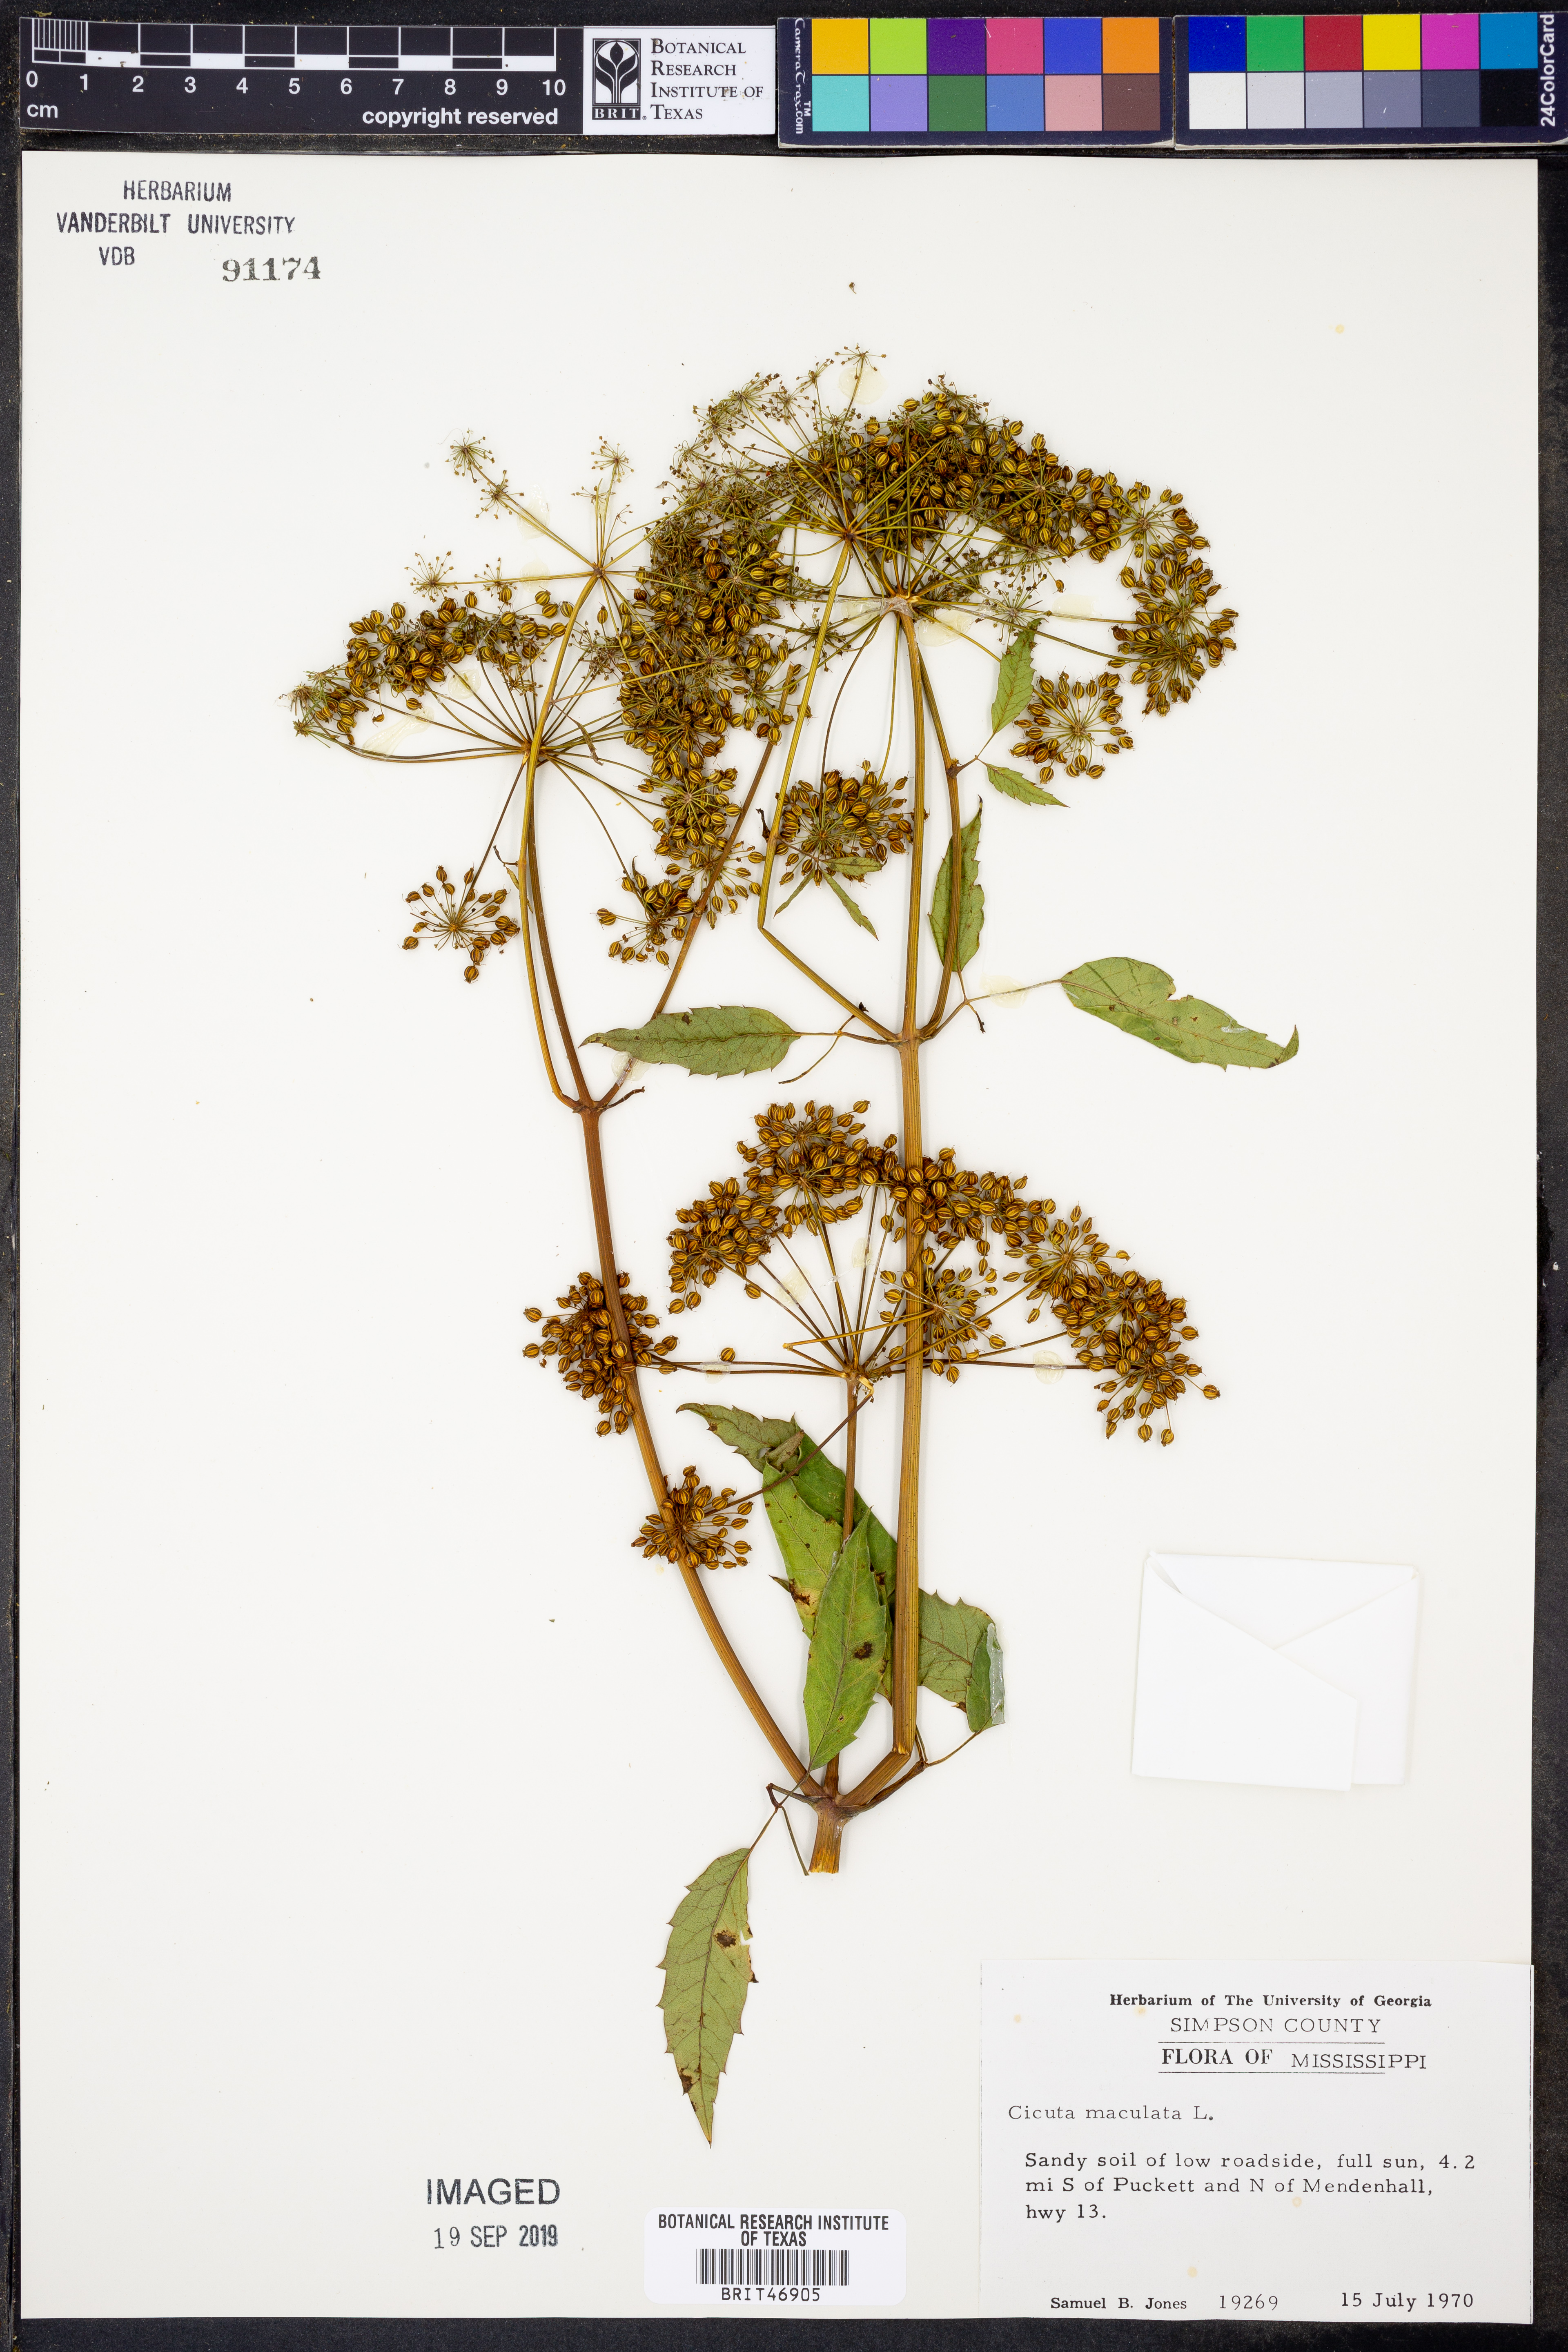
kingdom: Plantae
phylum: Tracheophyta
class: Magnoliopsida
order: Apiales
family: Apiaceae
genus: Cicuta
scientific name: Cicuta maculata
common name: Spotted cowbane
